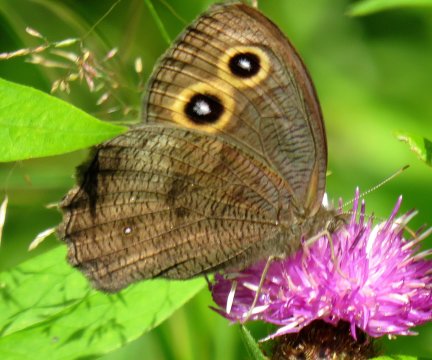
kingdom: Animalia
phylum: Arthropoda
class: Insecta
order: Lepidoptera
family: Nymphalidae
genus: Cercyonis
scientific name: Cercyonis pegala
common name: Common Wood-Nymph
